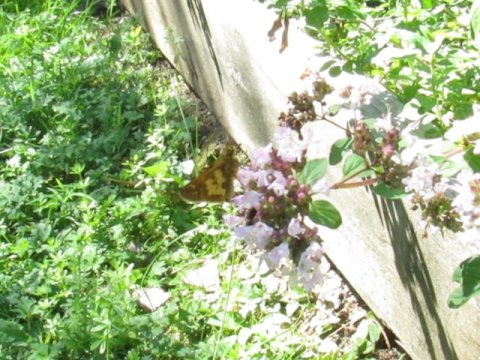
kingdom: Animalia
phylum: Arthropoda
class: Insecta
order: Lepidoptera
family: Hesperiidae
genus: Polites
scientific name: Polites coras
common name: Peck's Skipper
